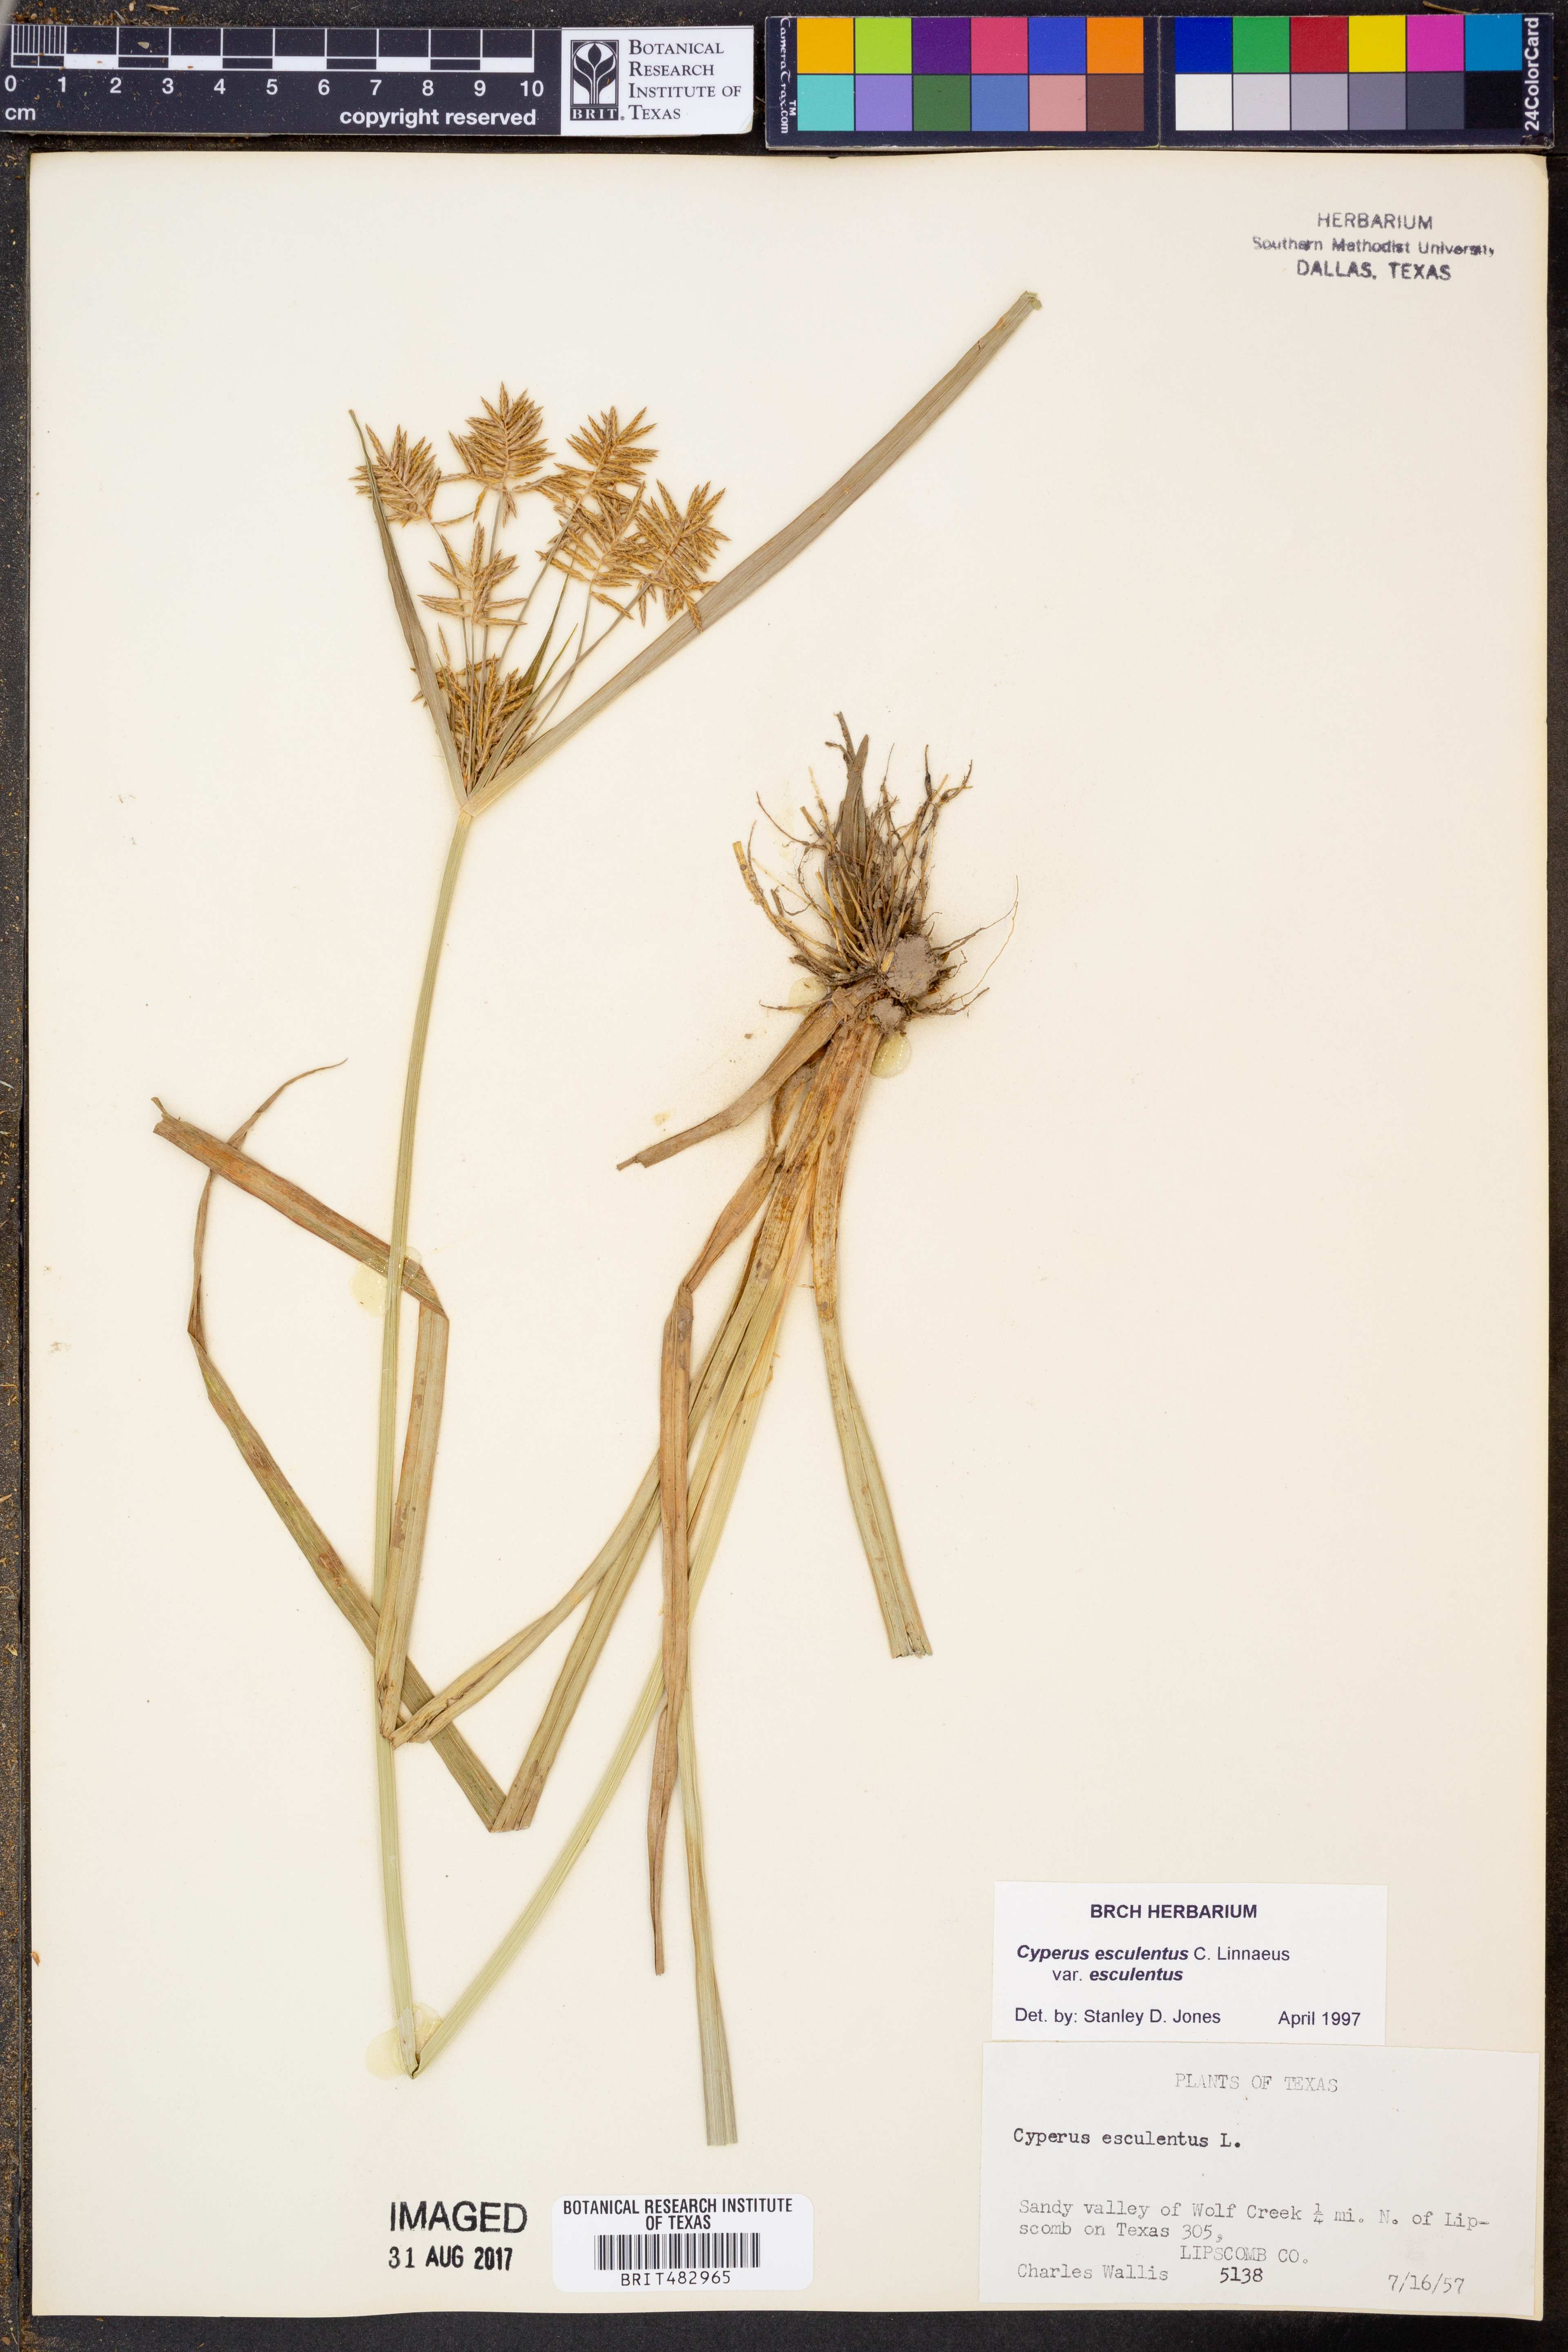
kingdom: Plantae
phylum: Tracheophyta
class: Liliopsida
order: Poales
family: Cyperaceae
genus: Cyperus
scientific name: Cyperus esculentus
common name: Yellow nutsedge
